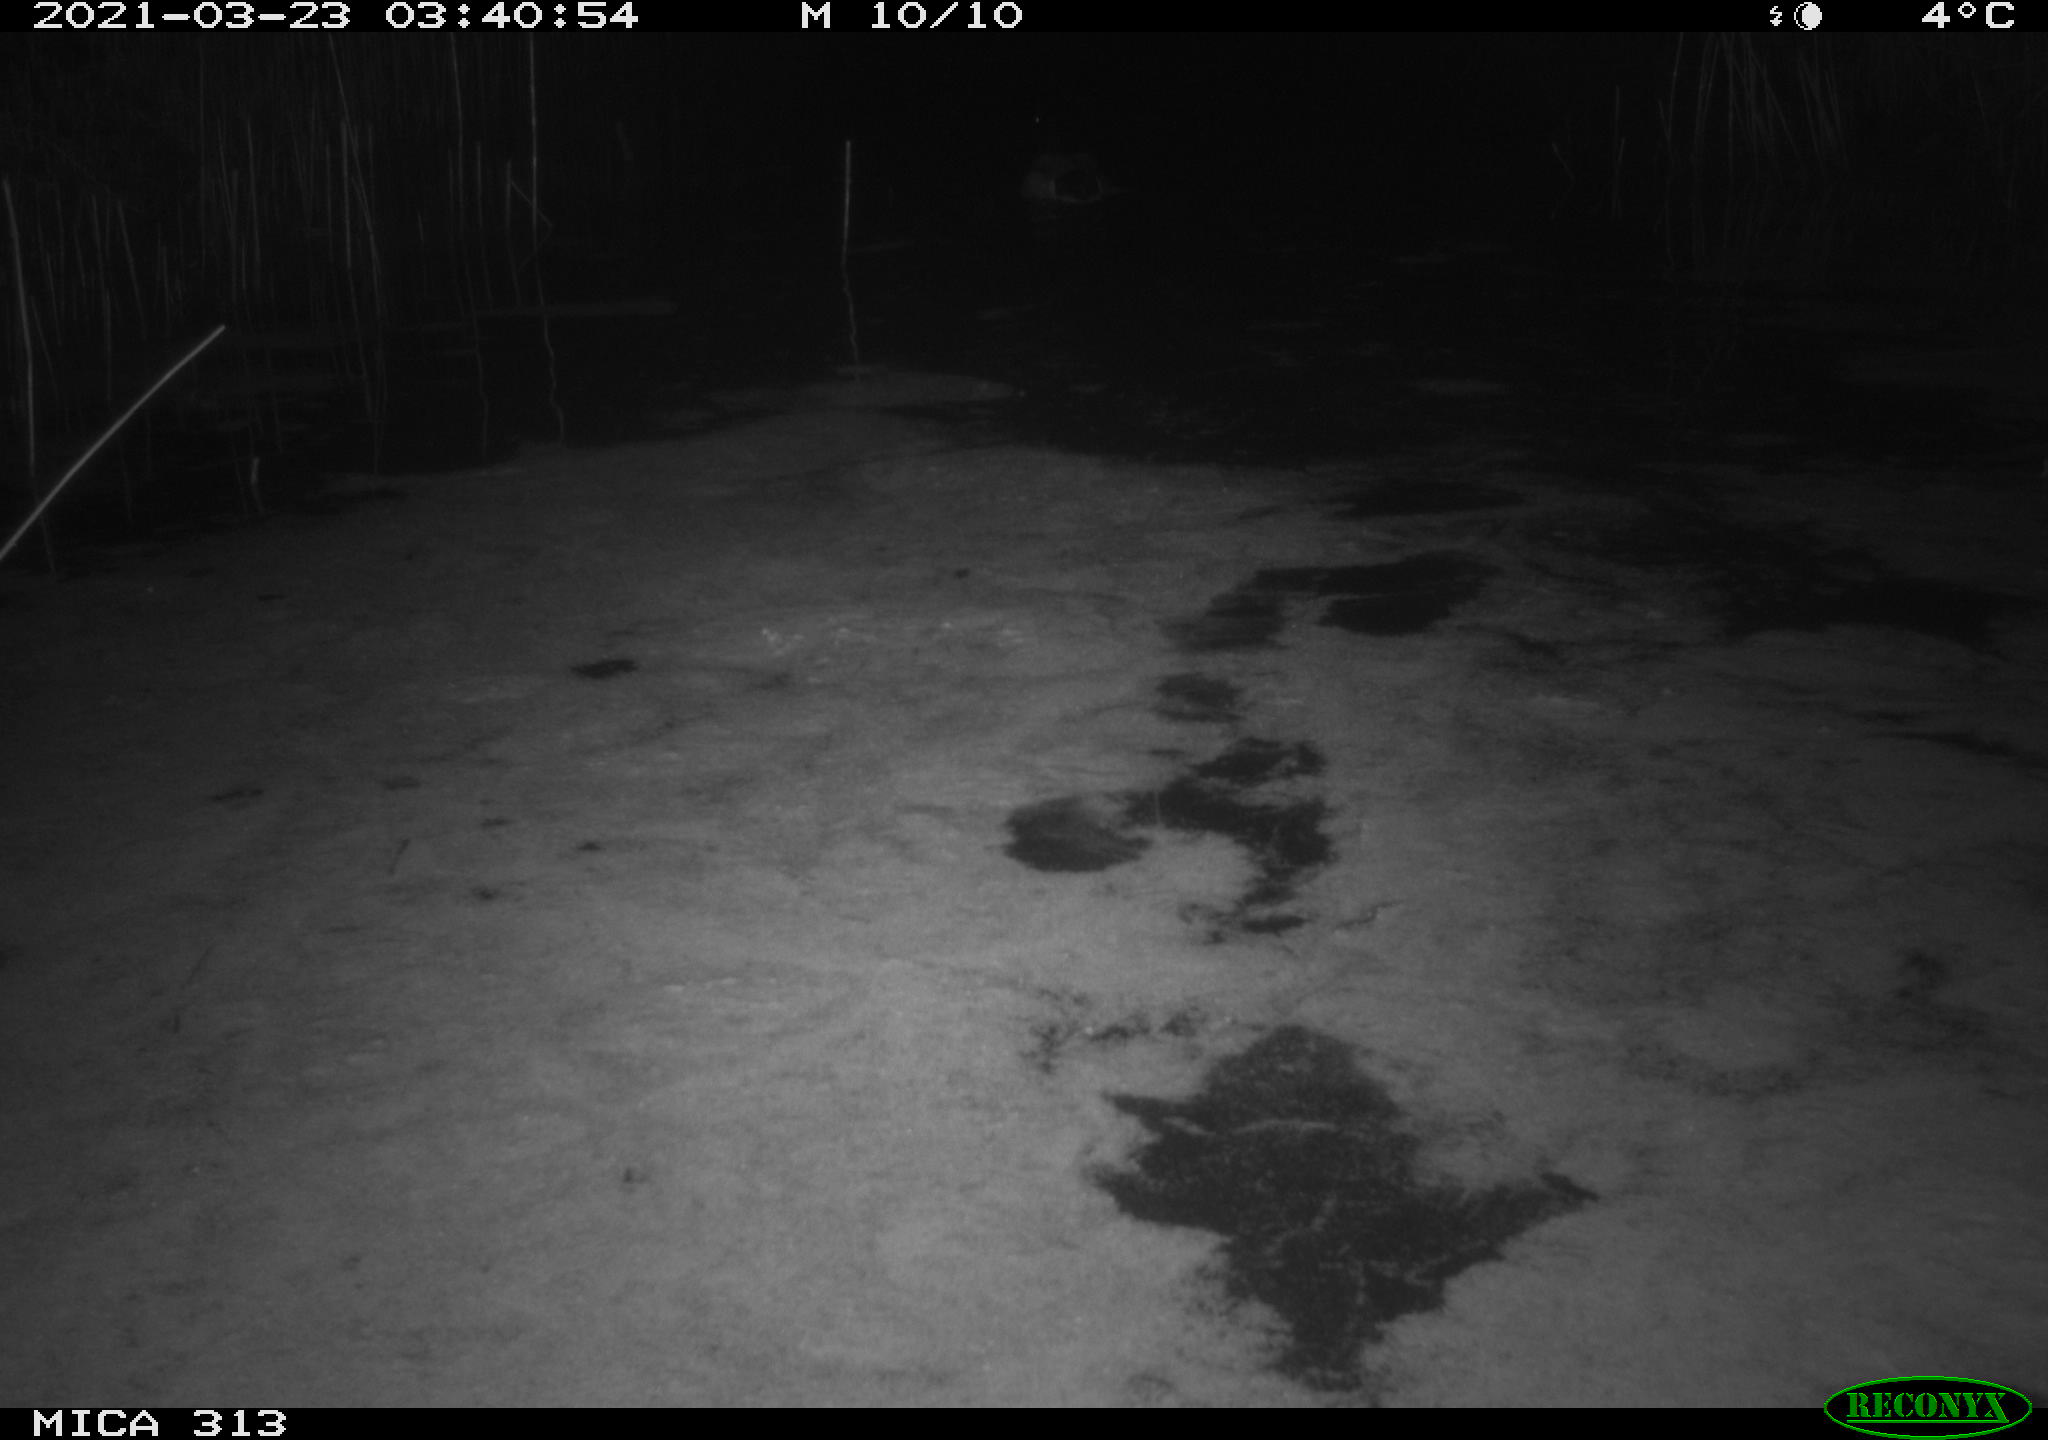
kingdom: Animalia
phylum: Chordata
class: Aves
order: Anseriformes
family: Anatidae
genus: Anas
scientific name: Anas platyrhynchos
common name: Mallard
